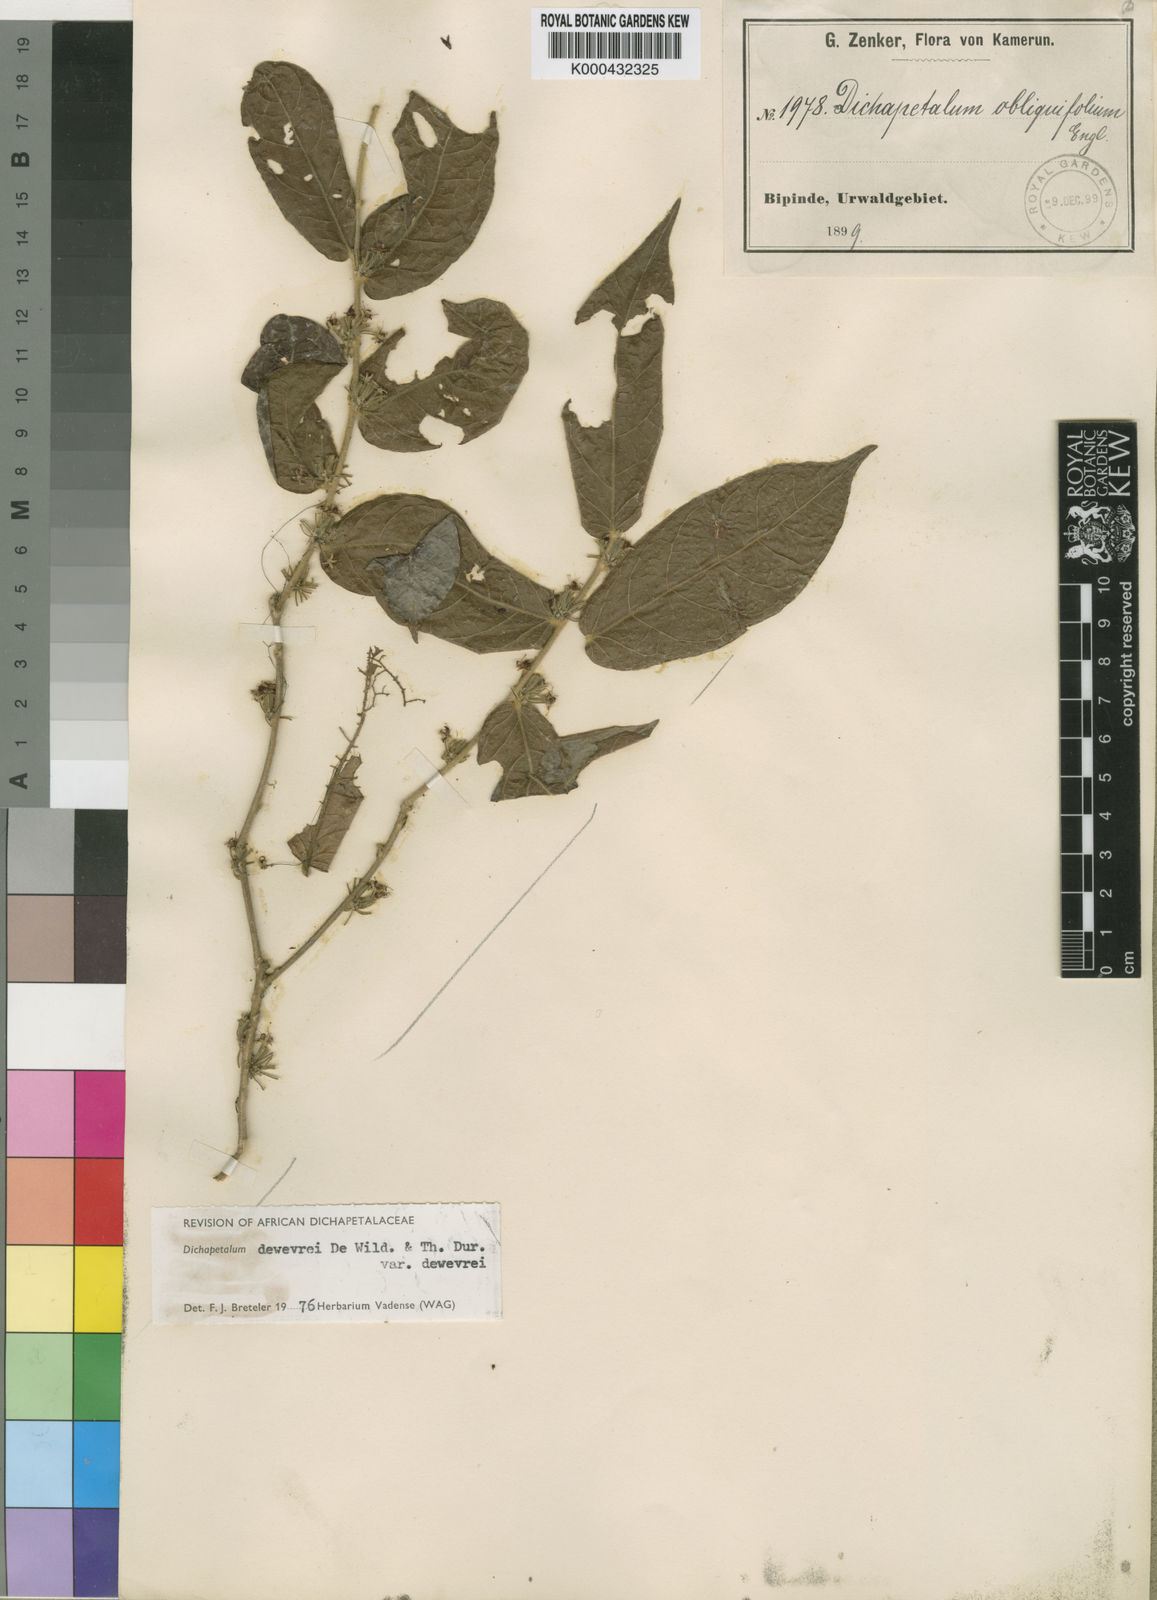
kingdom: Plantae
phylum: Tracheophyta
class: Magnoliopsida
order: Malpighiales
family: Dichapetalaceae
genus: Dichapetalum
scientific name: Dichapetalum dewevrei
